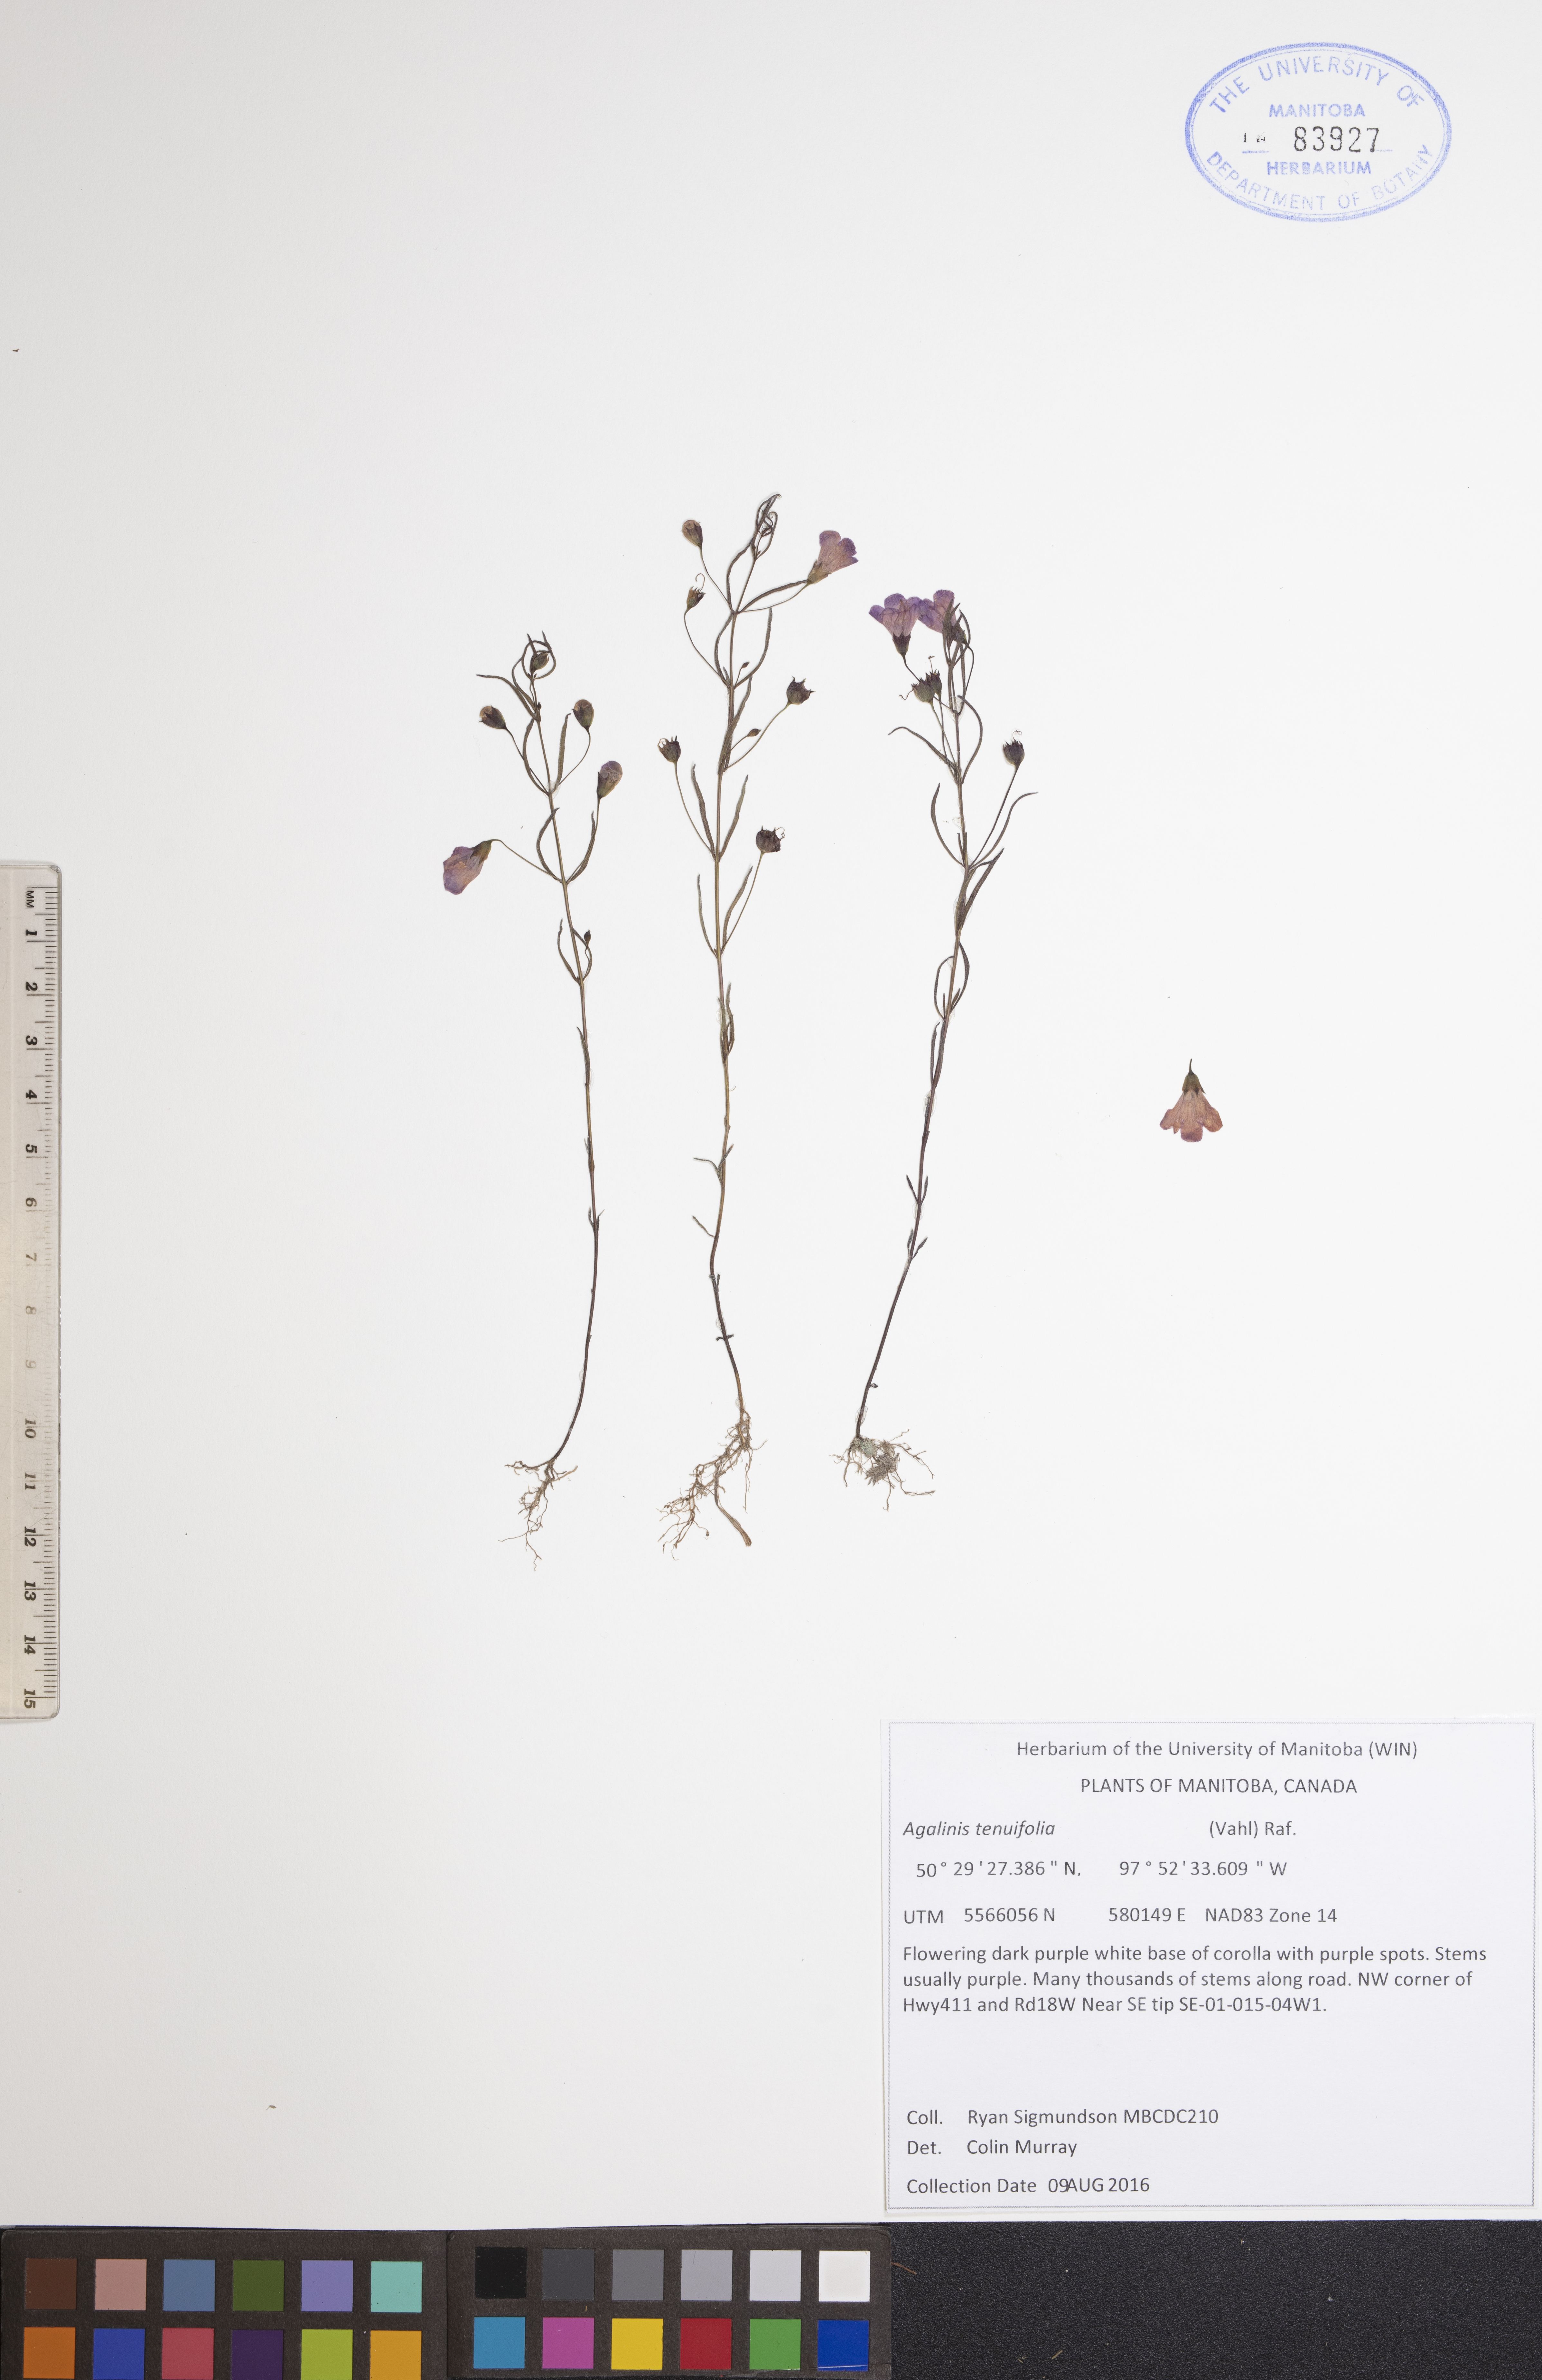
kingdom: Plantae
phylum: Tracheophyta
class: Magnoliopsida
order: Lamiales
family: Orobanchaceae
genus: Agalinis
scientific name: Agalinis tenuifolia
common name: Slender agalinis
